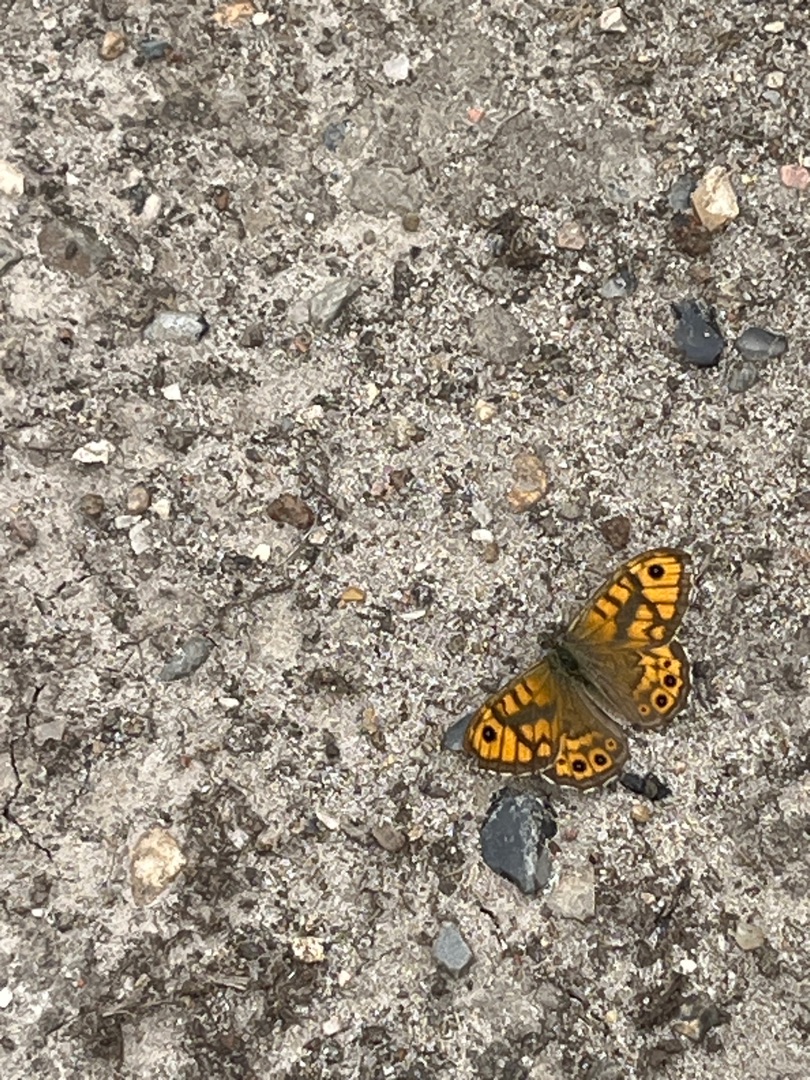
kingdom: Animalia
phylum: Arthropoda
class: Insecta
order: Lepidoptera
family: Nymphalidae
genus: Pararge
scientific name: Pararge Lasiommata megera
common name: Vejrandøje
